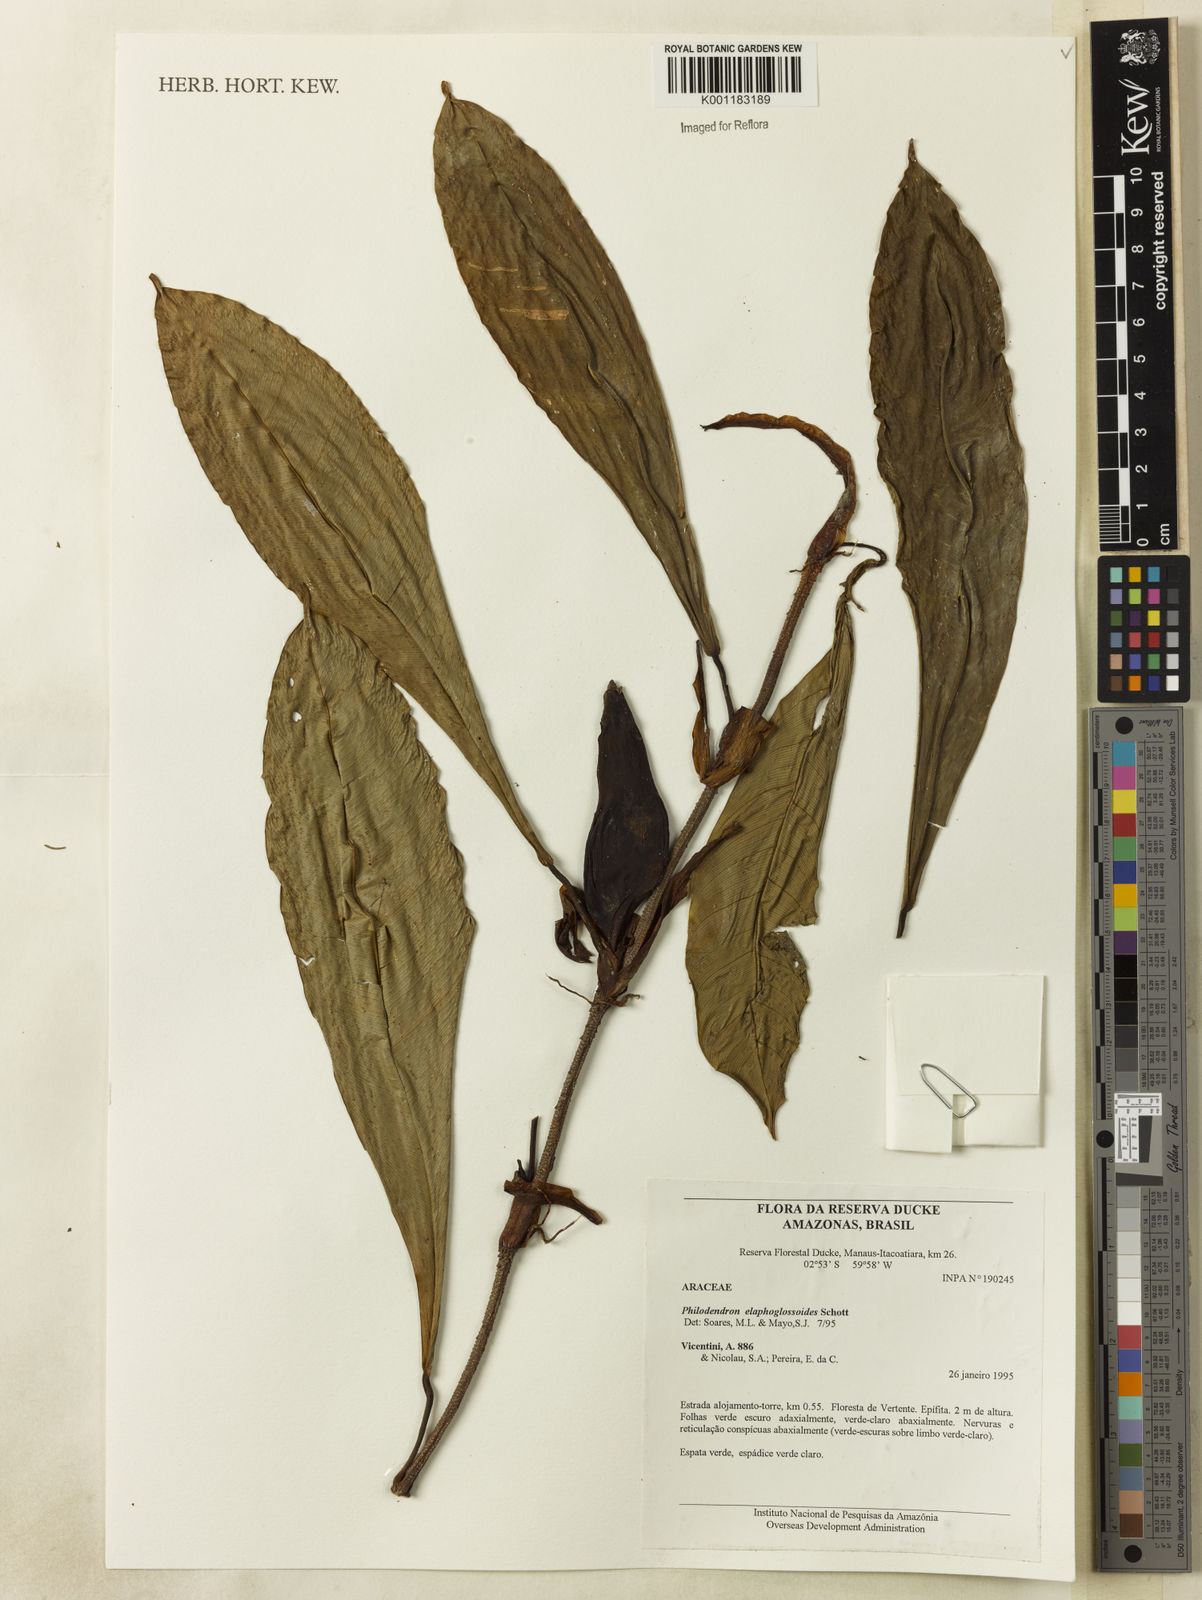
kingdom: Plantae
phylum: Tracheophyta
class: Liliopsida
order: Alismatales
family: Araceae
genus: Philodendron
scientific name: Philodendron elaphoglossoides
